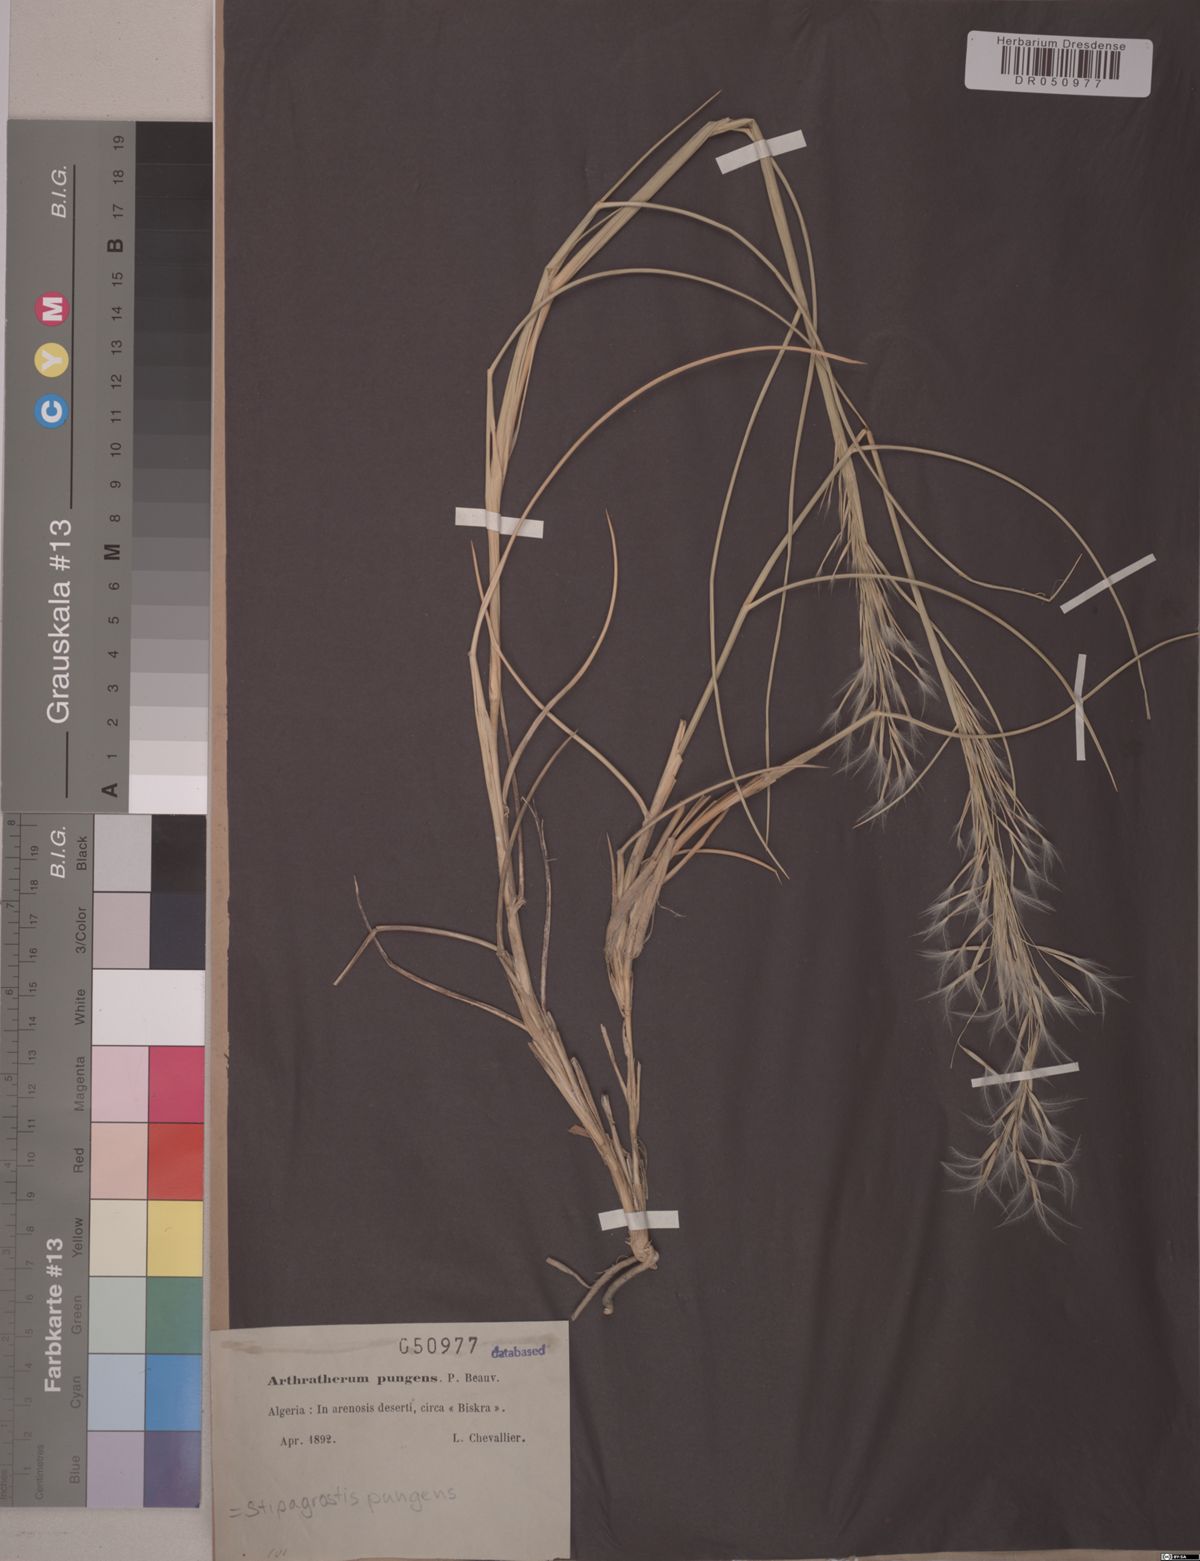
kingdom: Plantae
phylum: Tracheophyta
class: Liliopsida
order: Poales
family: Poaceae
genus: Stipagrostis
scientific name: Stipagrostis pungens
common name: Three-awn grass
